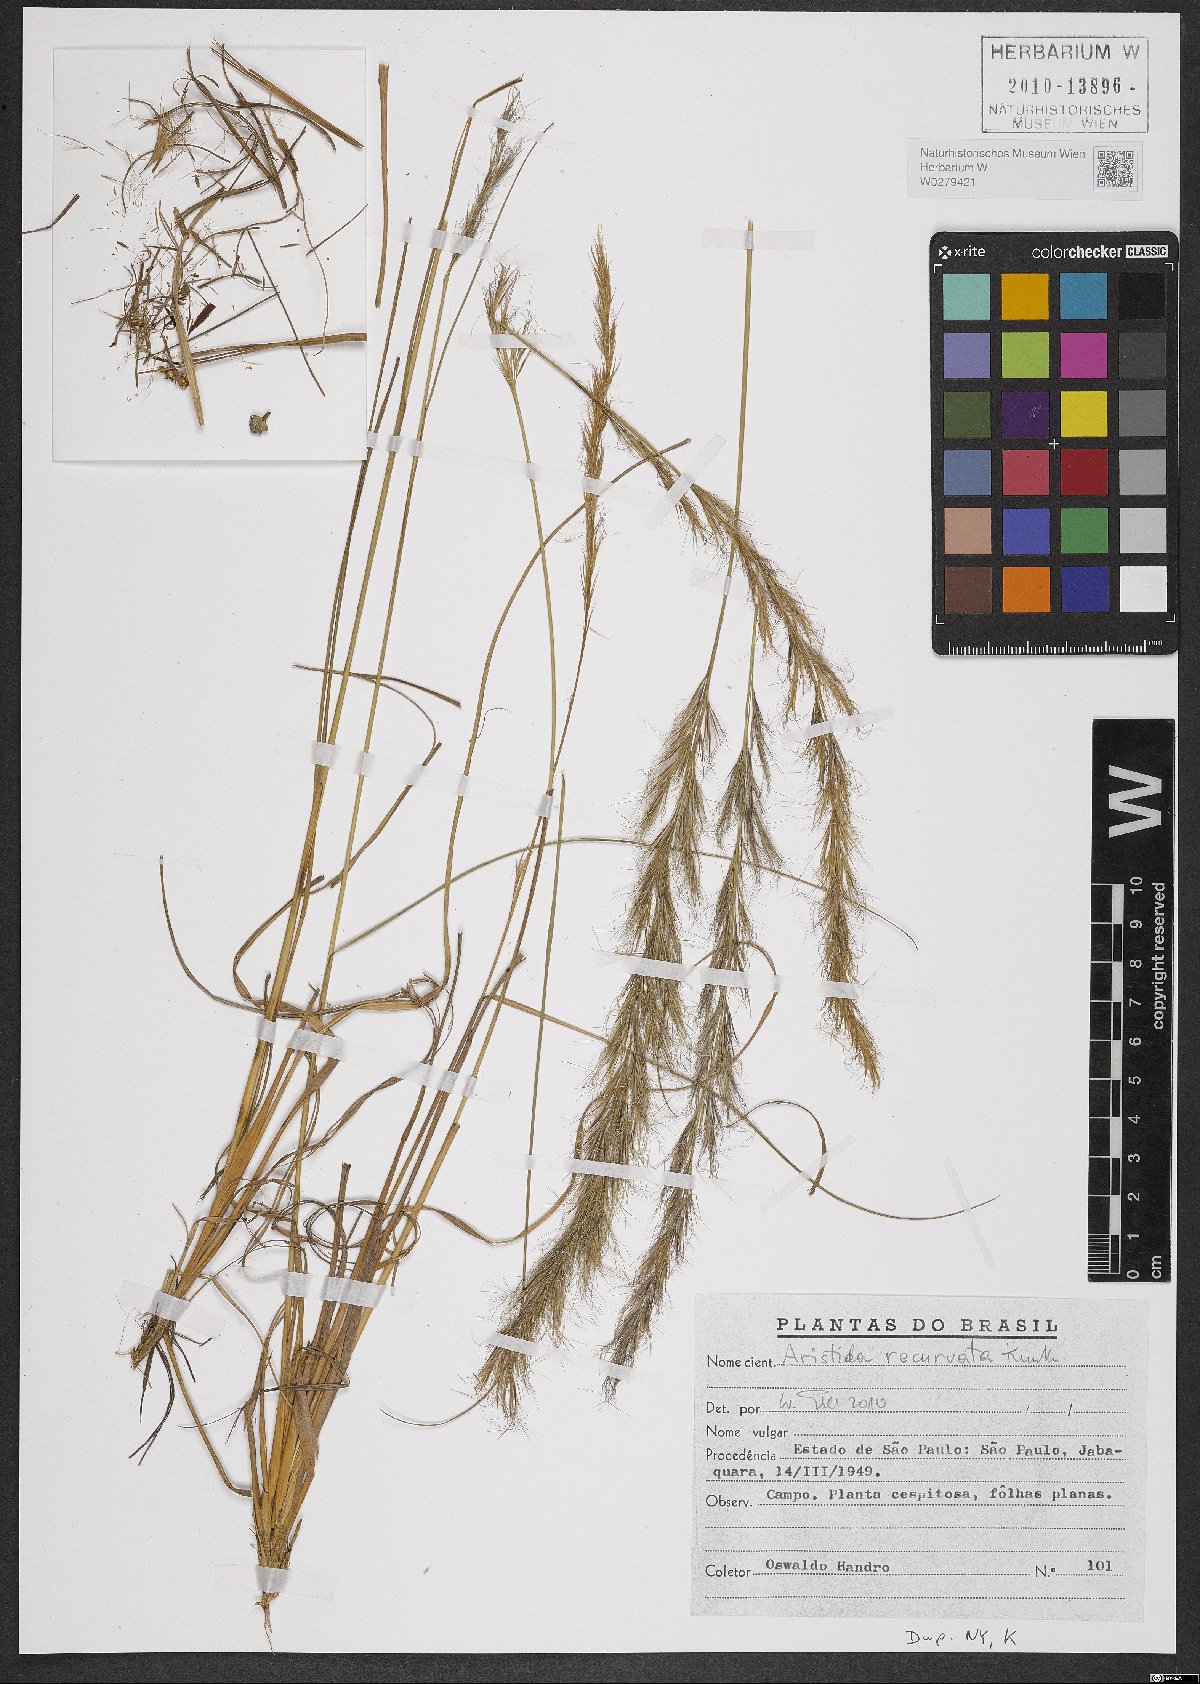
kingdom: Plantae
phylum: Tracheophyta
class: Liliopsida
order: Poales
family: Poaceae
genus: Aristida
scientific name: Aristida recurvata
